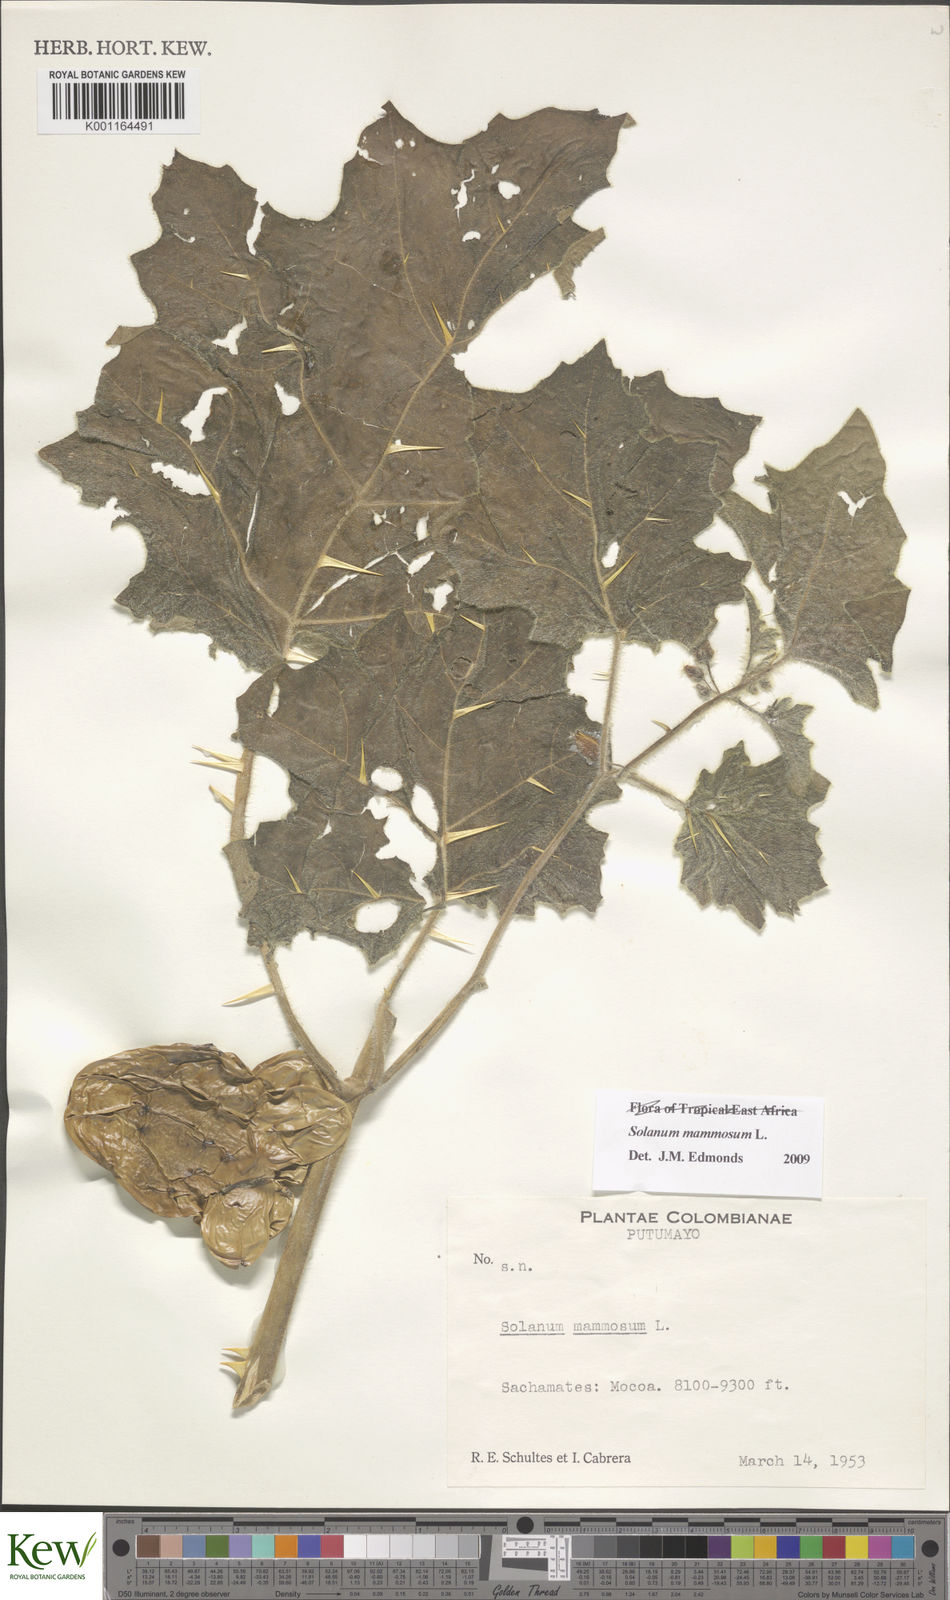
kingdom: Plantae
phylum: Tracheophyta
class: Magnoliopsida
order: Solanales
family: Solanaceae
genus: Solanum
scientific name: Solanum mammosum
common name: Nipple fruit
